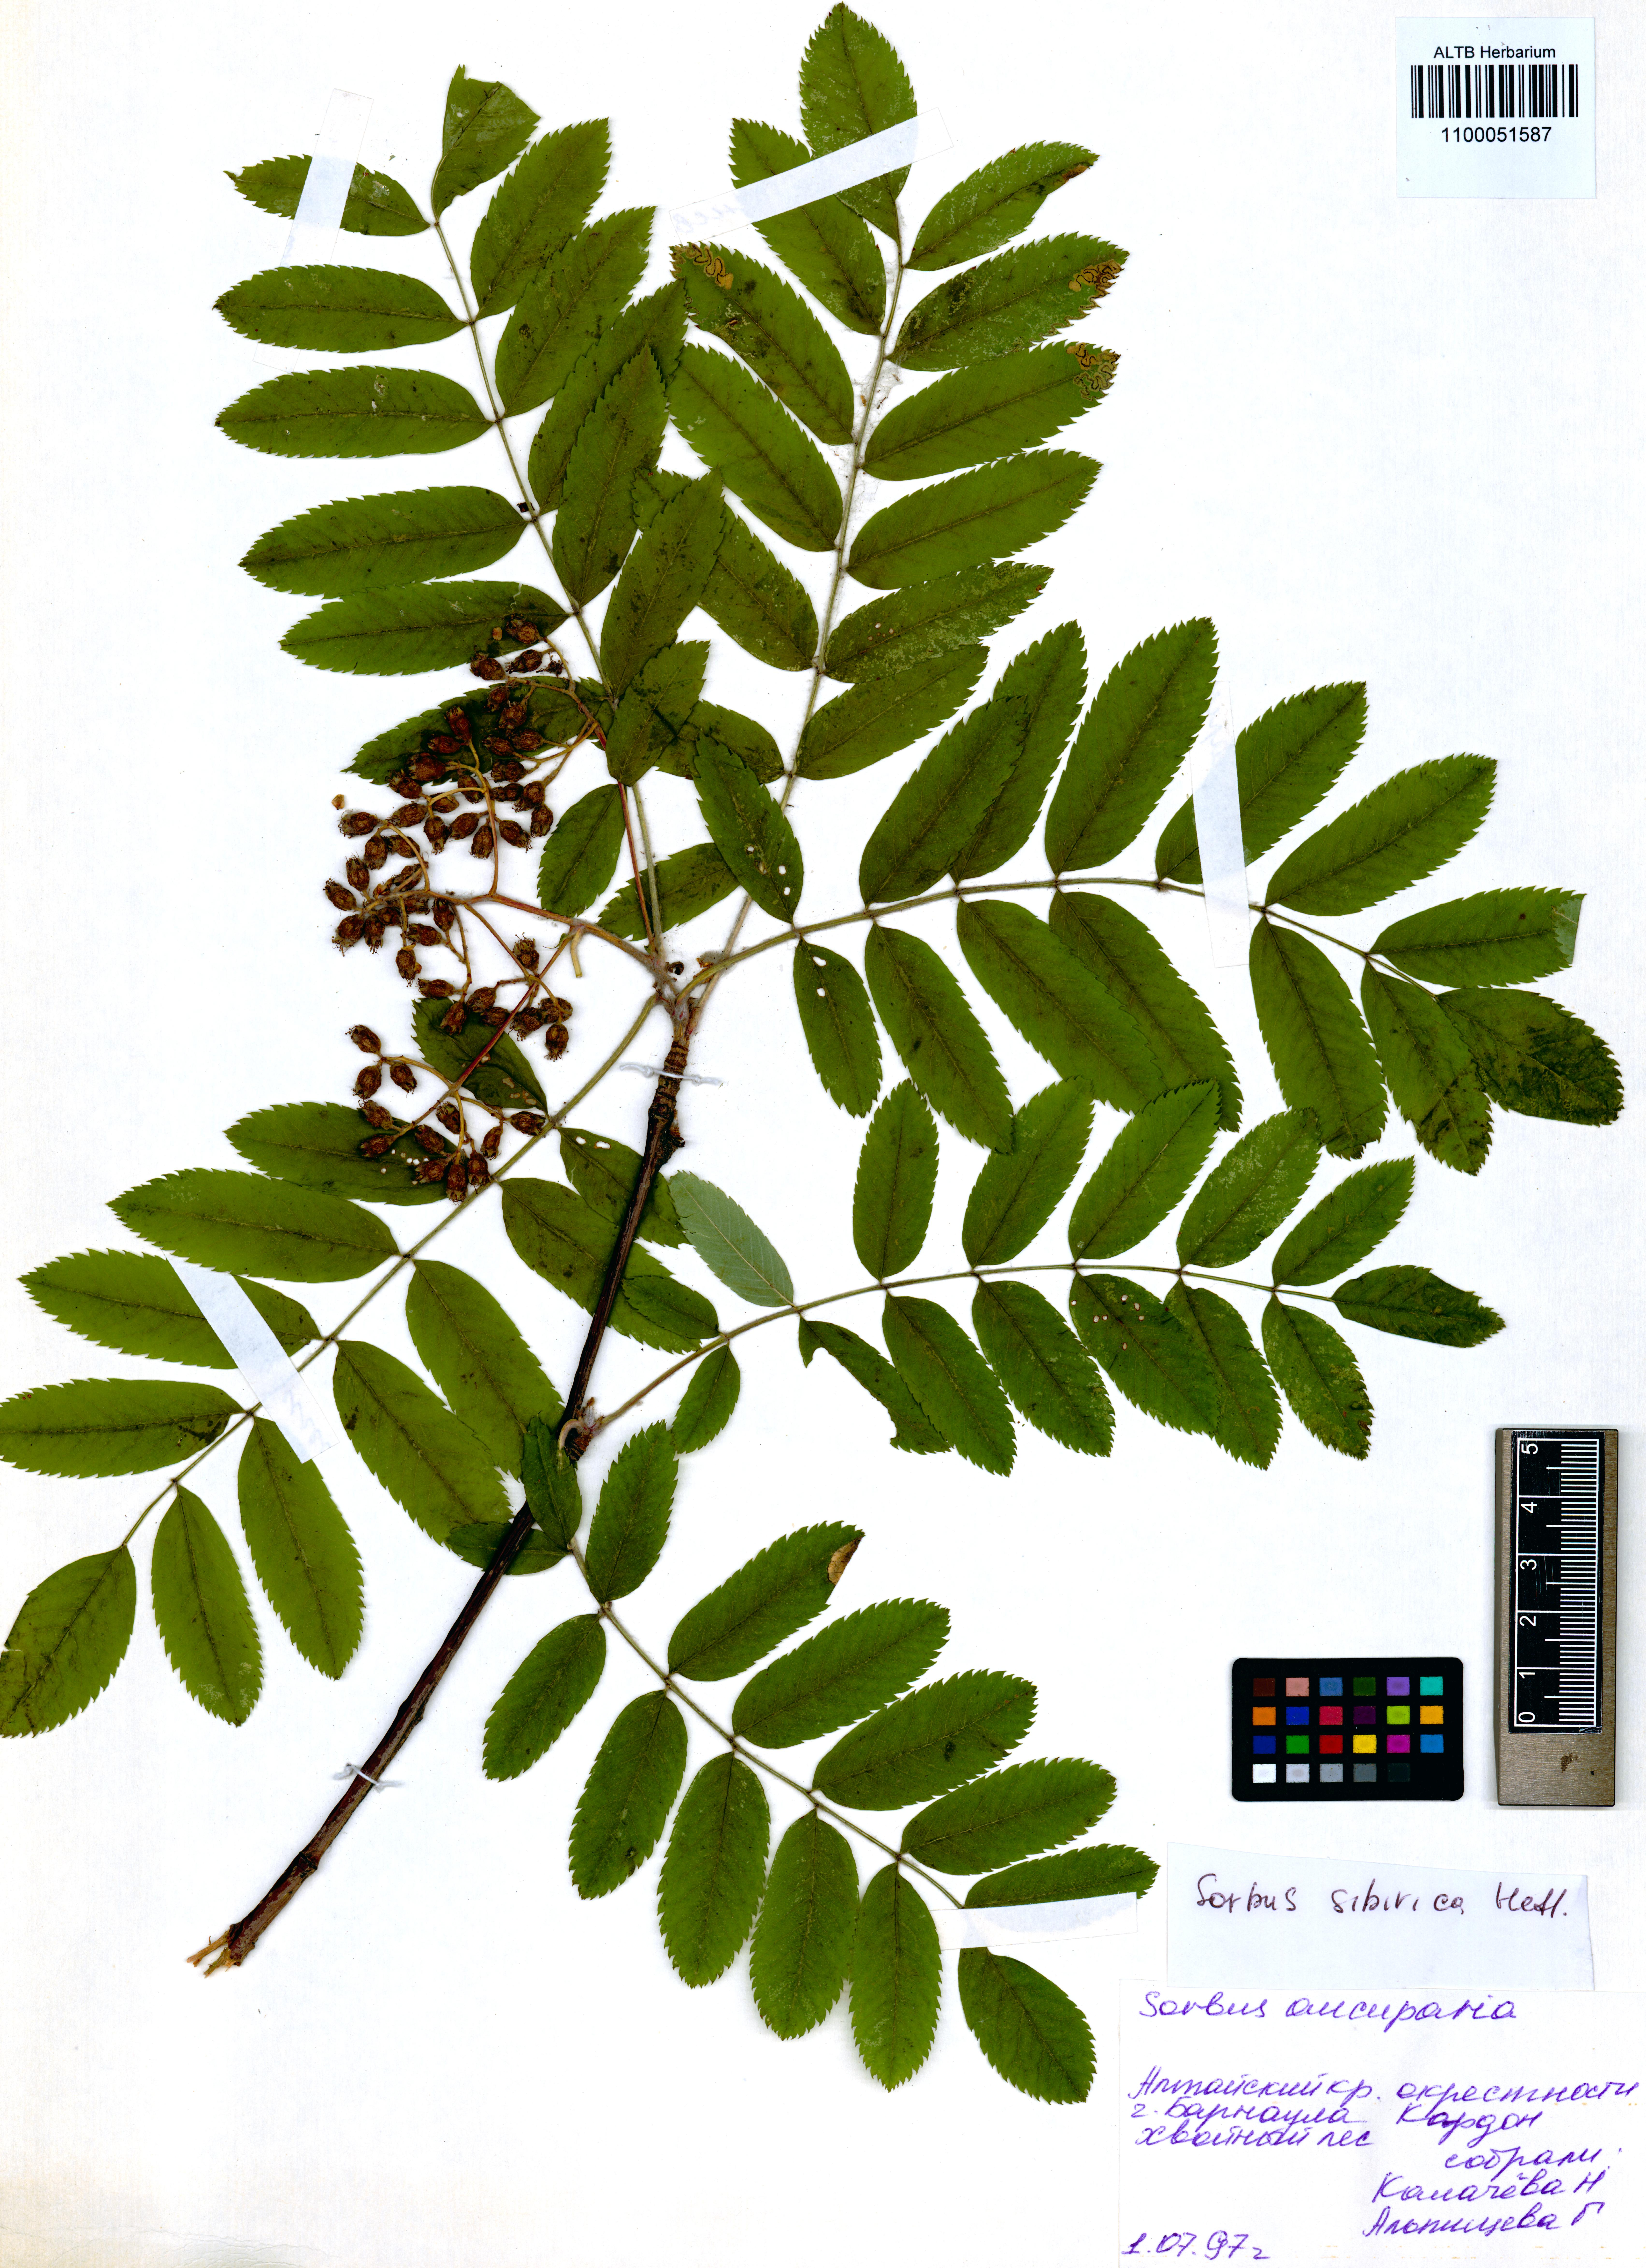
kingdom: Plantae
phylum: Tracheophyta
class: Magnoliopsida
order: Rosales
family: Rosaceae
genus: Sorbus
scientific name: Sorbus aucuparia
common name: Rowan
